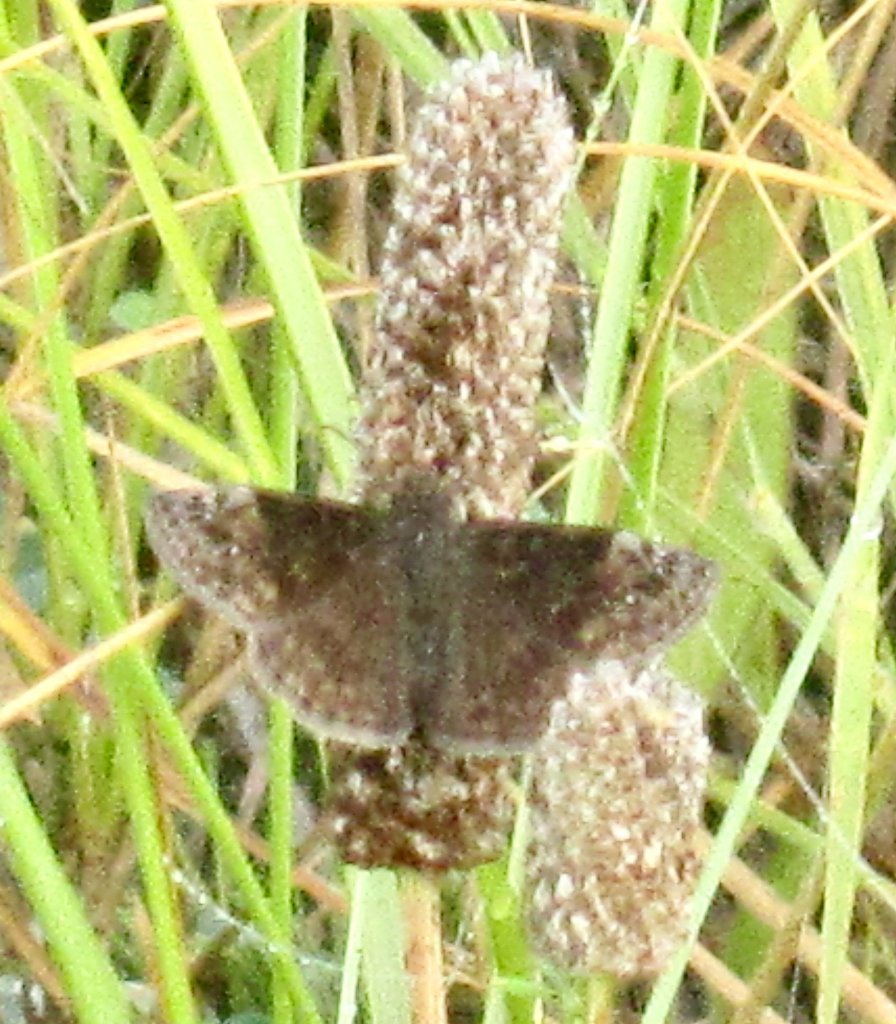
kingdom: Animalia
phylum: Arthropoda
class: Insecta
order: Lepidoptera
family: Hesperiidae
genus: Gesta
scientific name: Gesta
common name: Wild Indigo Duskywing
